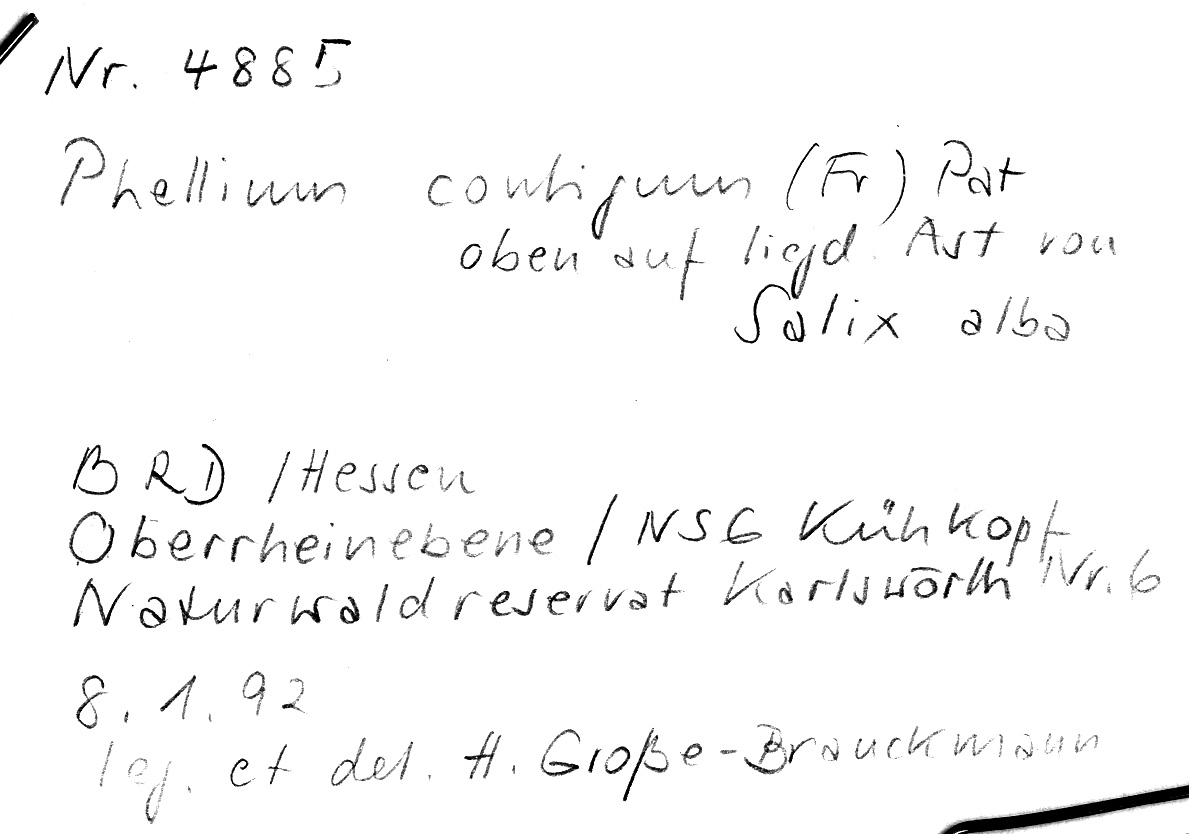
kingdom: Plantae
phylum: Tracheophyta
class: Magnoliopsida
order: Malpighiales
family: Salicaceae
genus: Salix
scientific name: Salix alba
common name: White willow
